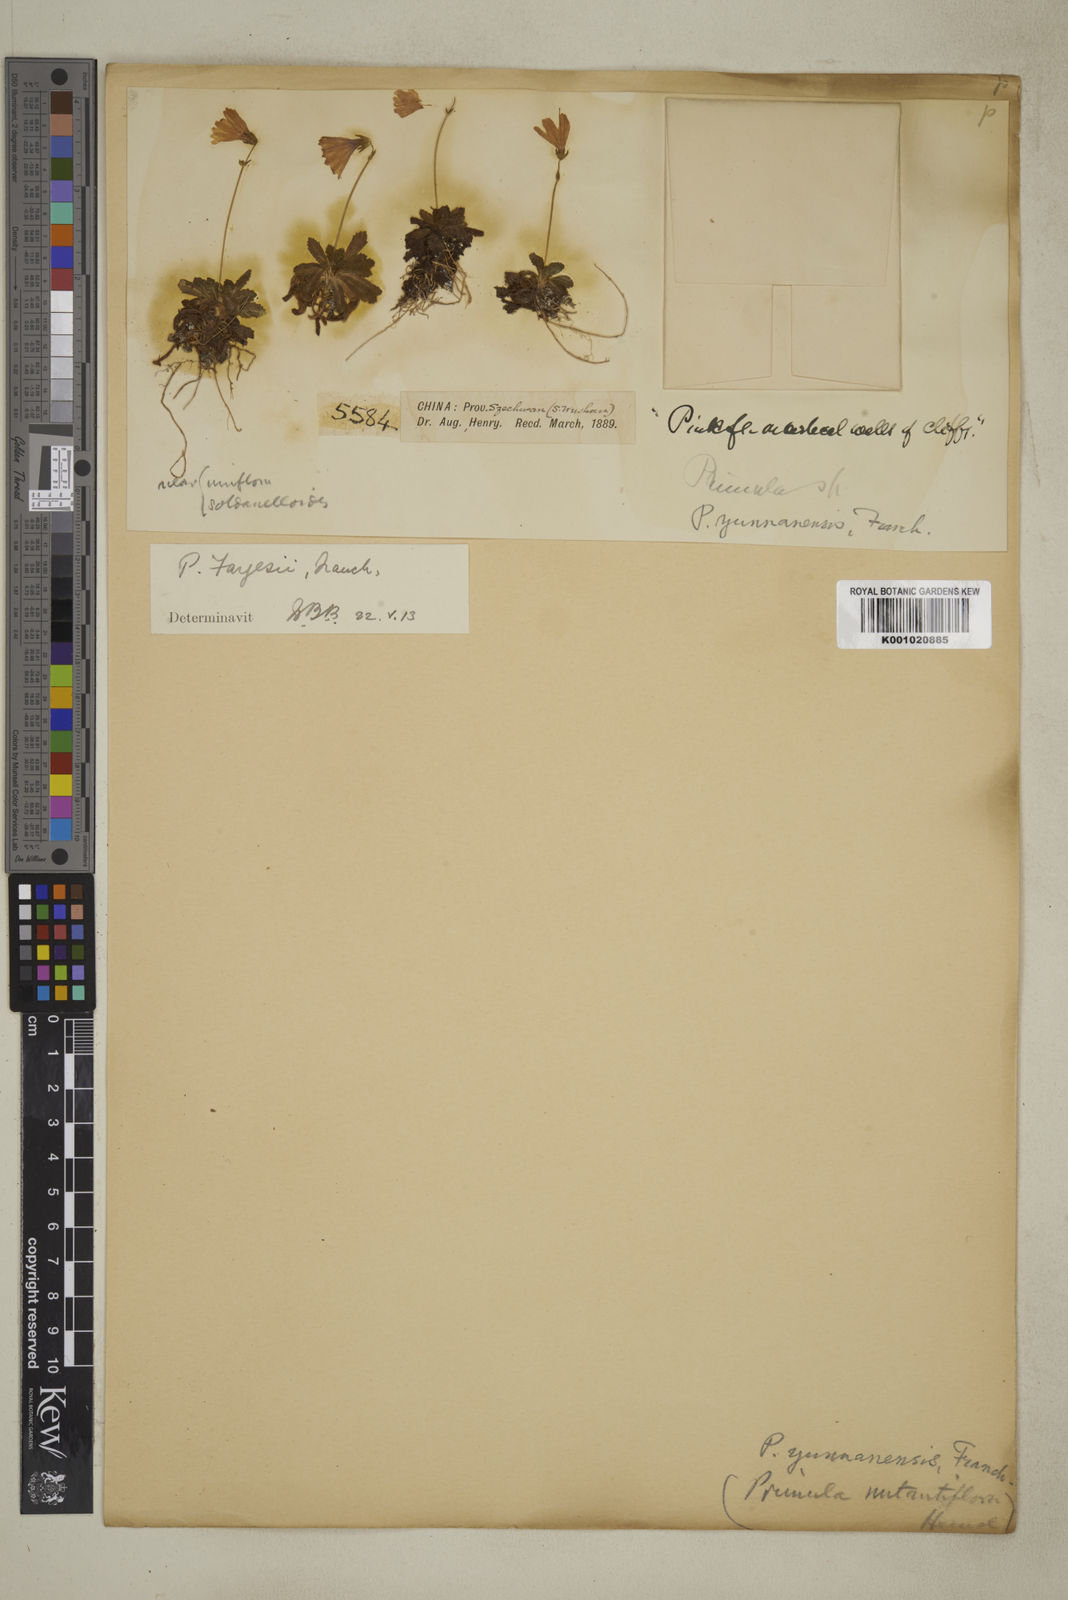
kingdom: Plantae
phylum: Tracheophyta
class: Magnoliopsida
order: Ericales
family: Primulaceae
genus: Primula
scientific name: Primula nutantiflora
